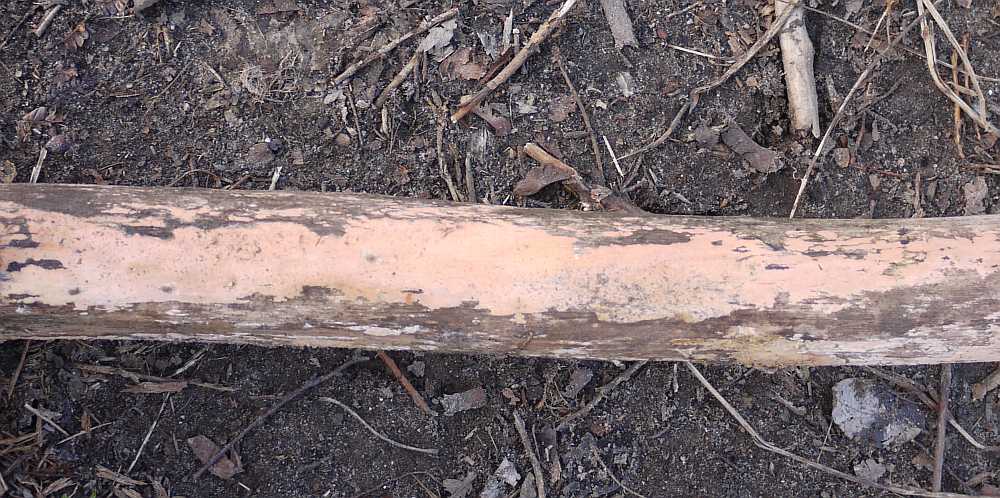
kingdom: Fungi
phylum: Basidiomycota
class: Agaricomycetes
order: Russulales
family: Peniophoraceae
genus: Peniophora
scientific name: Peniophora incarnata
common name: laksefarvet voksskind
